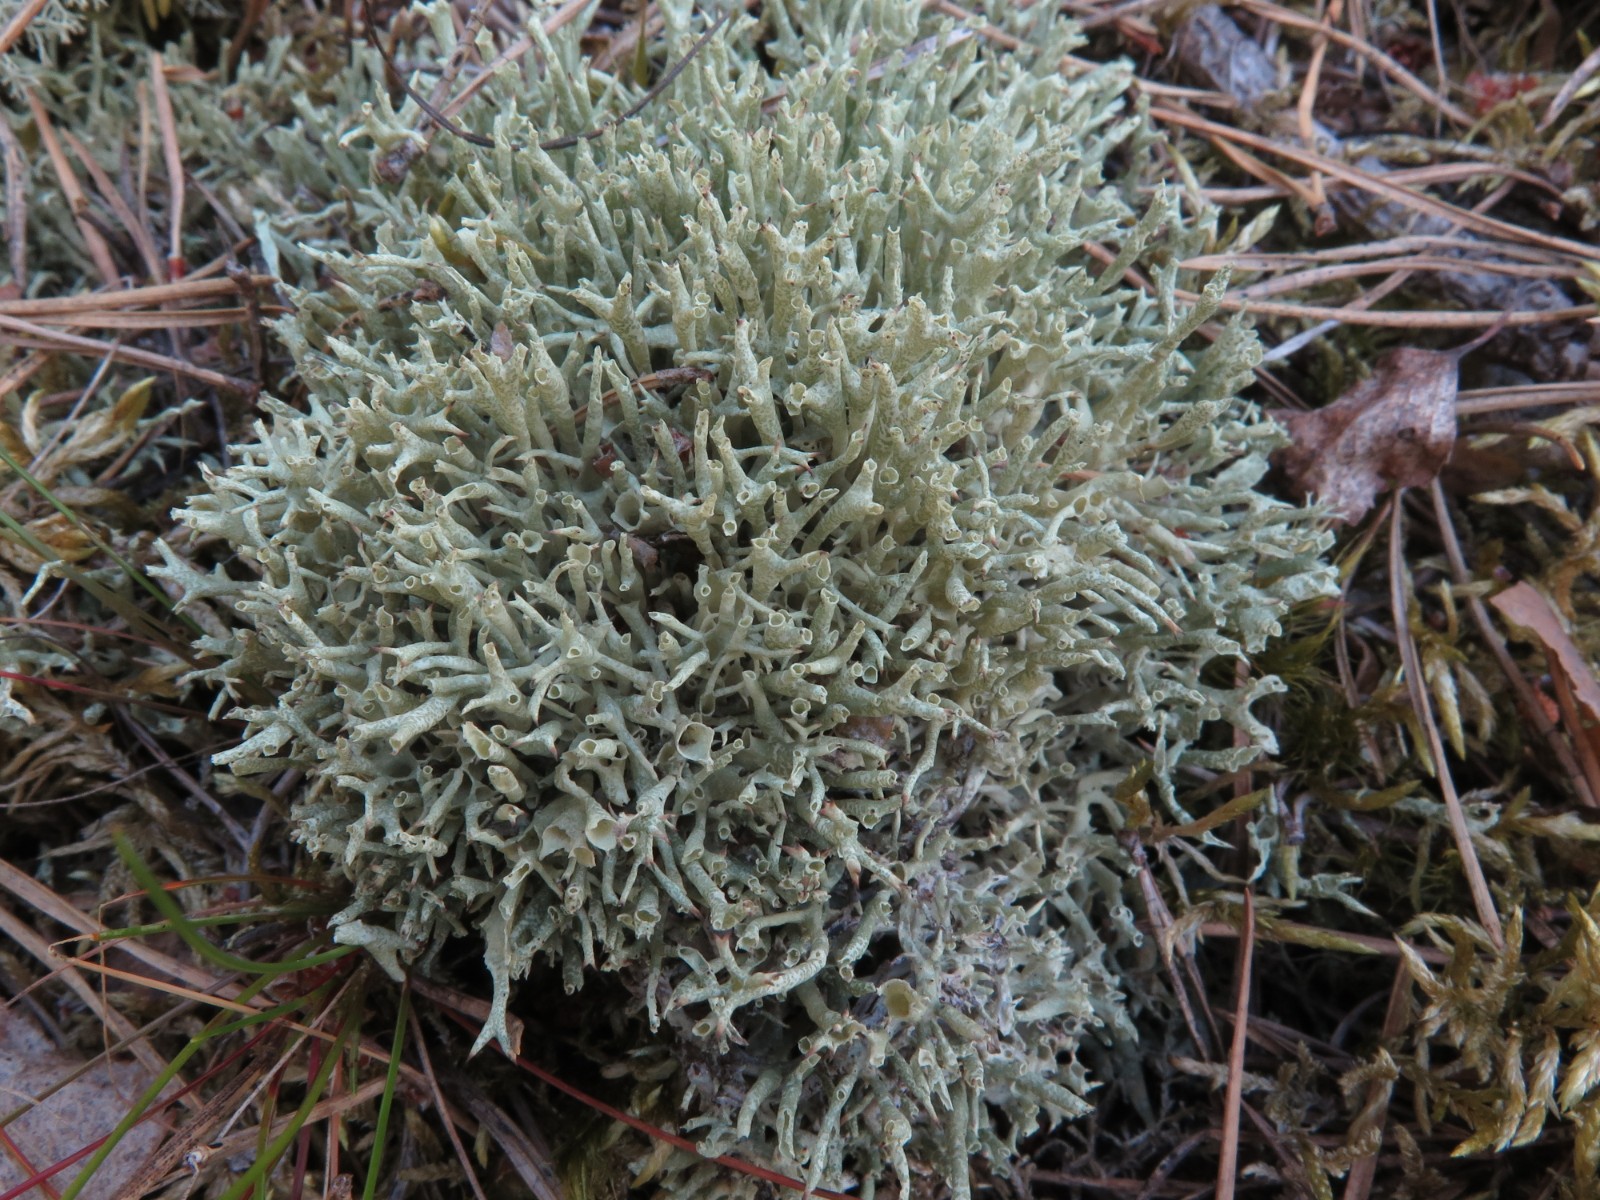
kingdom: Fungi
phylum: Ascomycota
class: Lecanoromycetes
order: Lecanorales
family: Cladoniaceae
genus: Cladonia
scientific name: Cladonia uncialis
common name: pigget bægerlav
